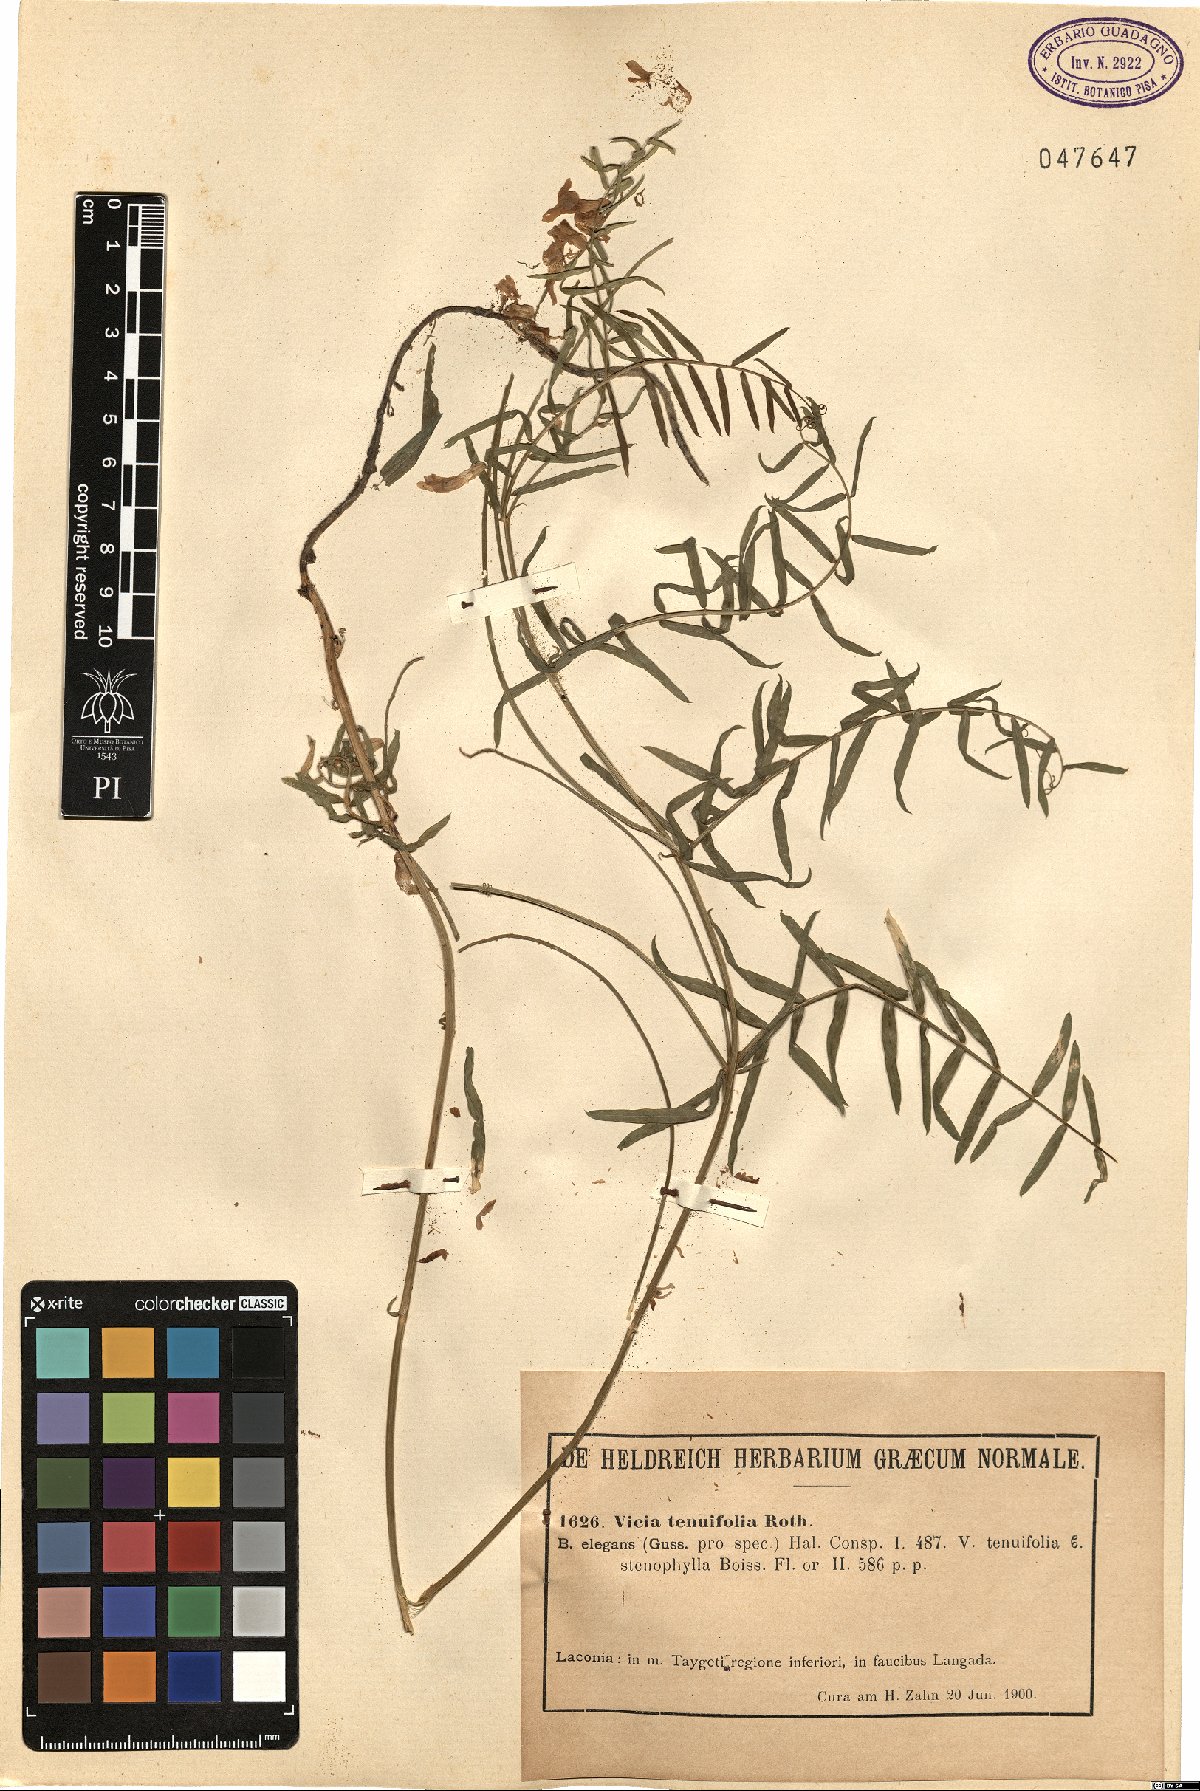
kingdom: Plantae
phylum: Tracheophyta
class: Magnoliopsida
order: Fabales
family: Fabaceae
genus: Vicia
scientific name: Vicia tenuifolia
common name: Fine-leaved vetch
